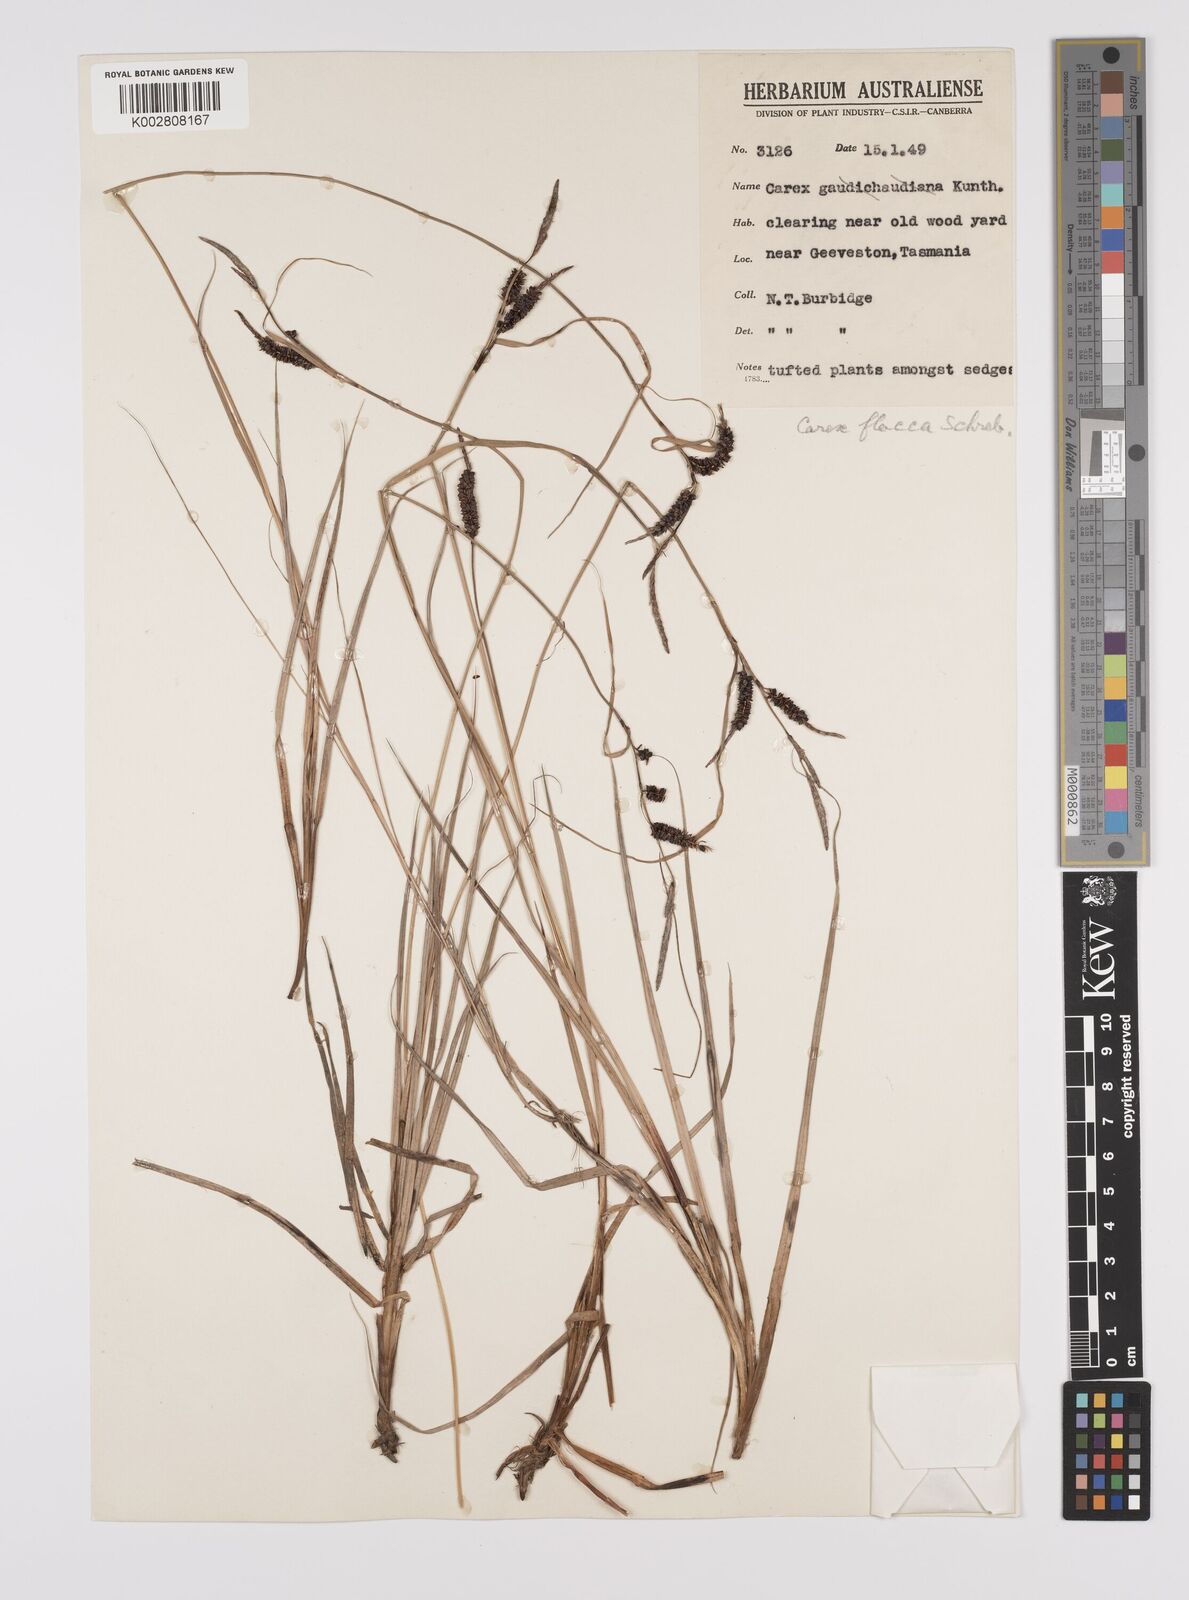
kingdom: Plantae
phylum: Tracheophyta
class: Liliopsida
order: Poales
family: Cyperaceae
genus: Carex
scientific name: Carex flacca
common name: Glaucous sedge
